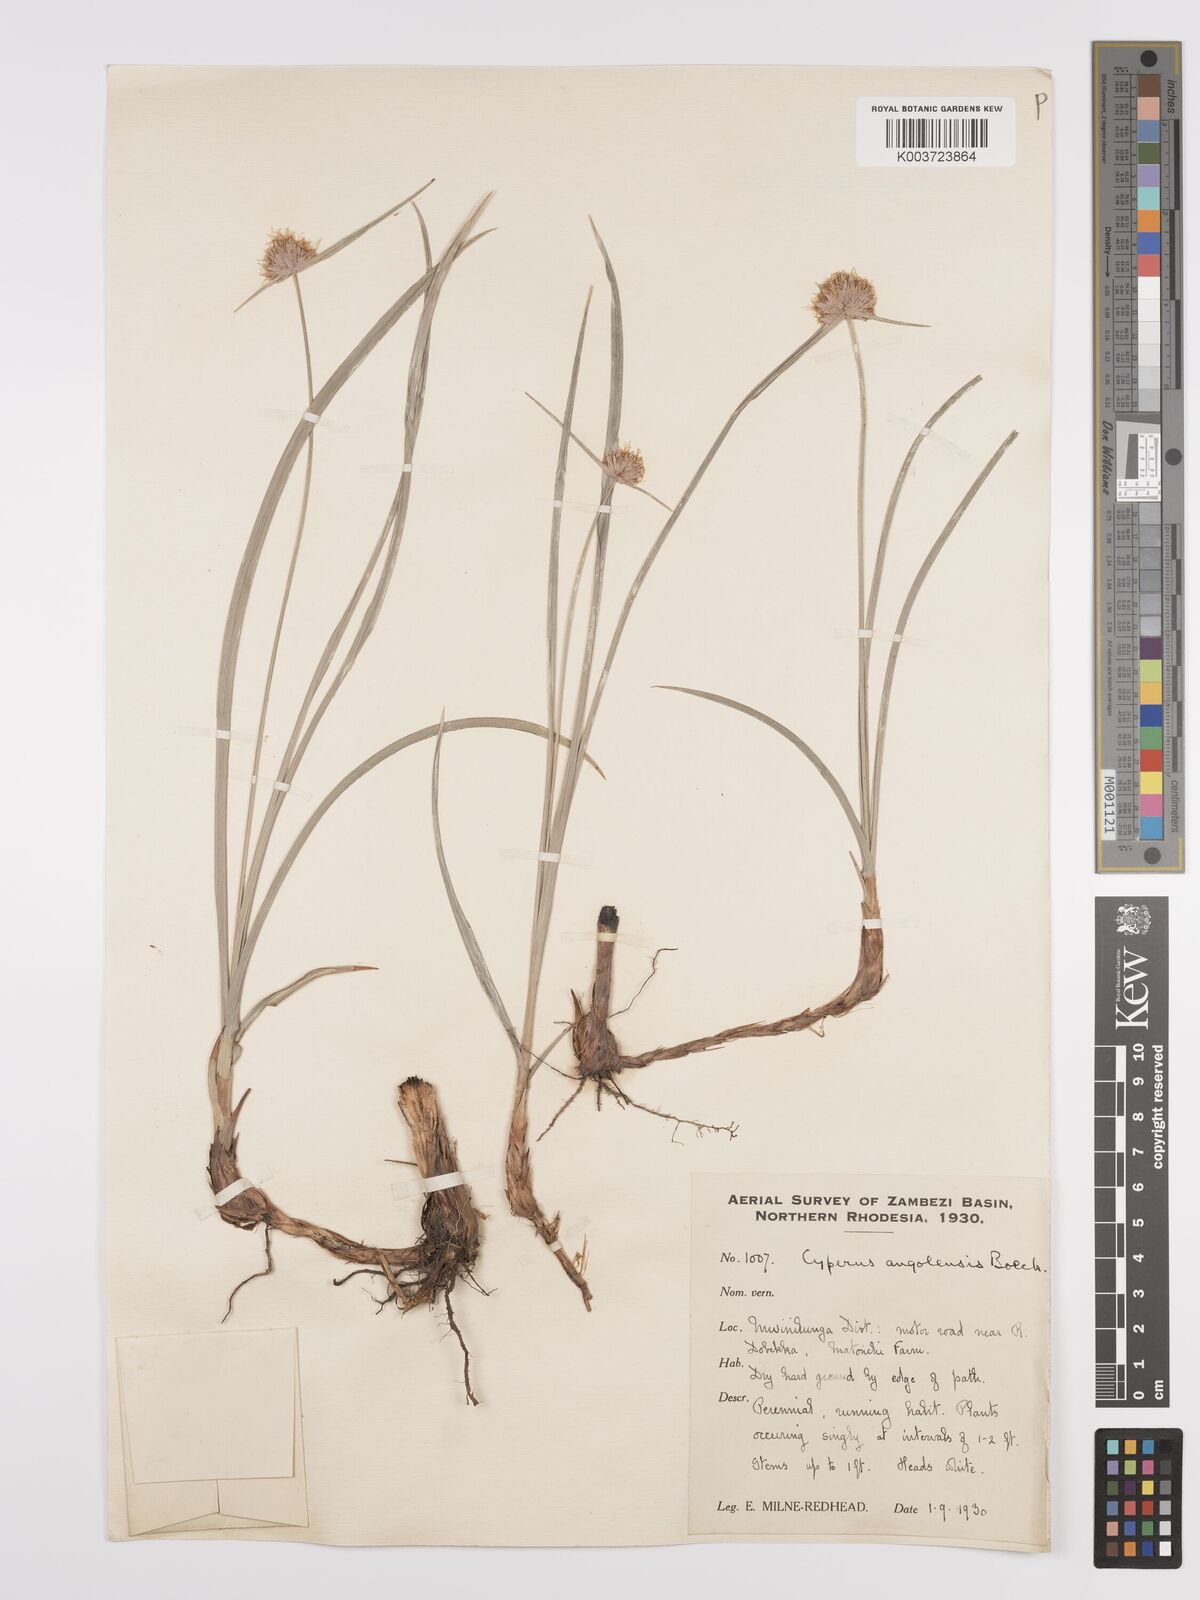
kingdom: Plantae
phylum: Tracheophyta
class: Liliopsida
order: Poales
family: Cyperaceae
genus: Cyperus
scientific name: Cyperus angolensis
